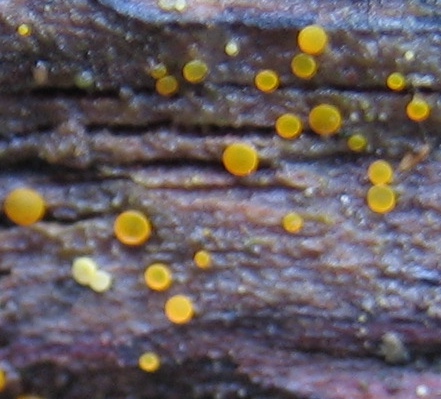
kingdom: Fungi
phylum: Ascomycota
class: Orbiliomycetes
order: Orbiliales
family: Orbiliaceae
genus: Orbilia
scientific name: Orbilia
